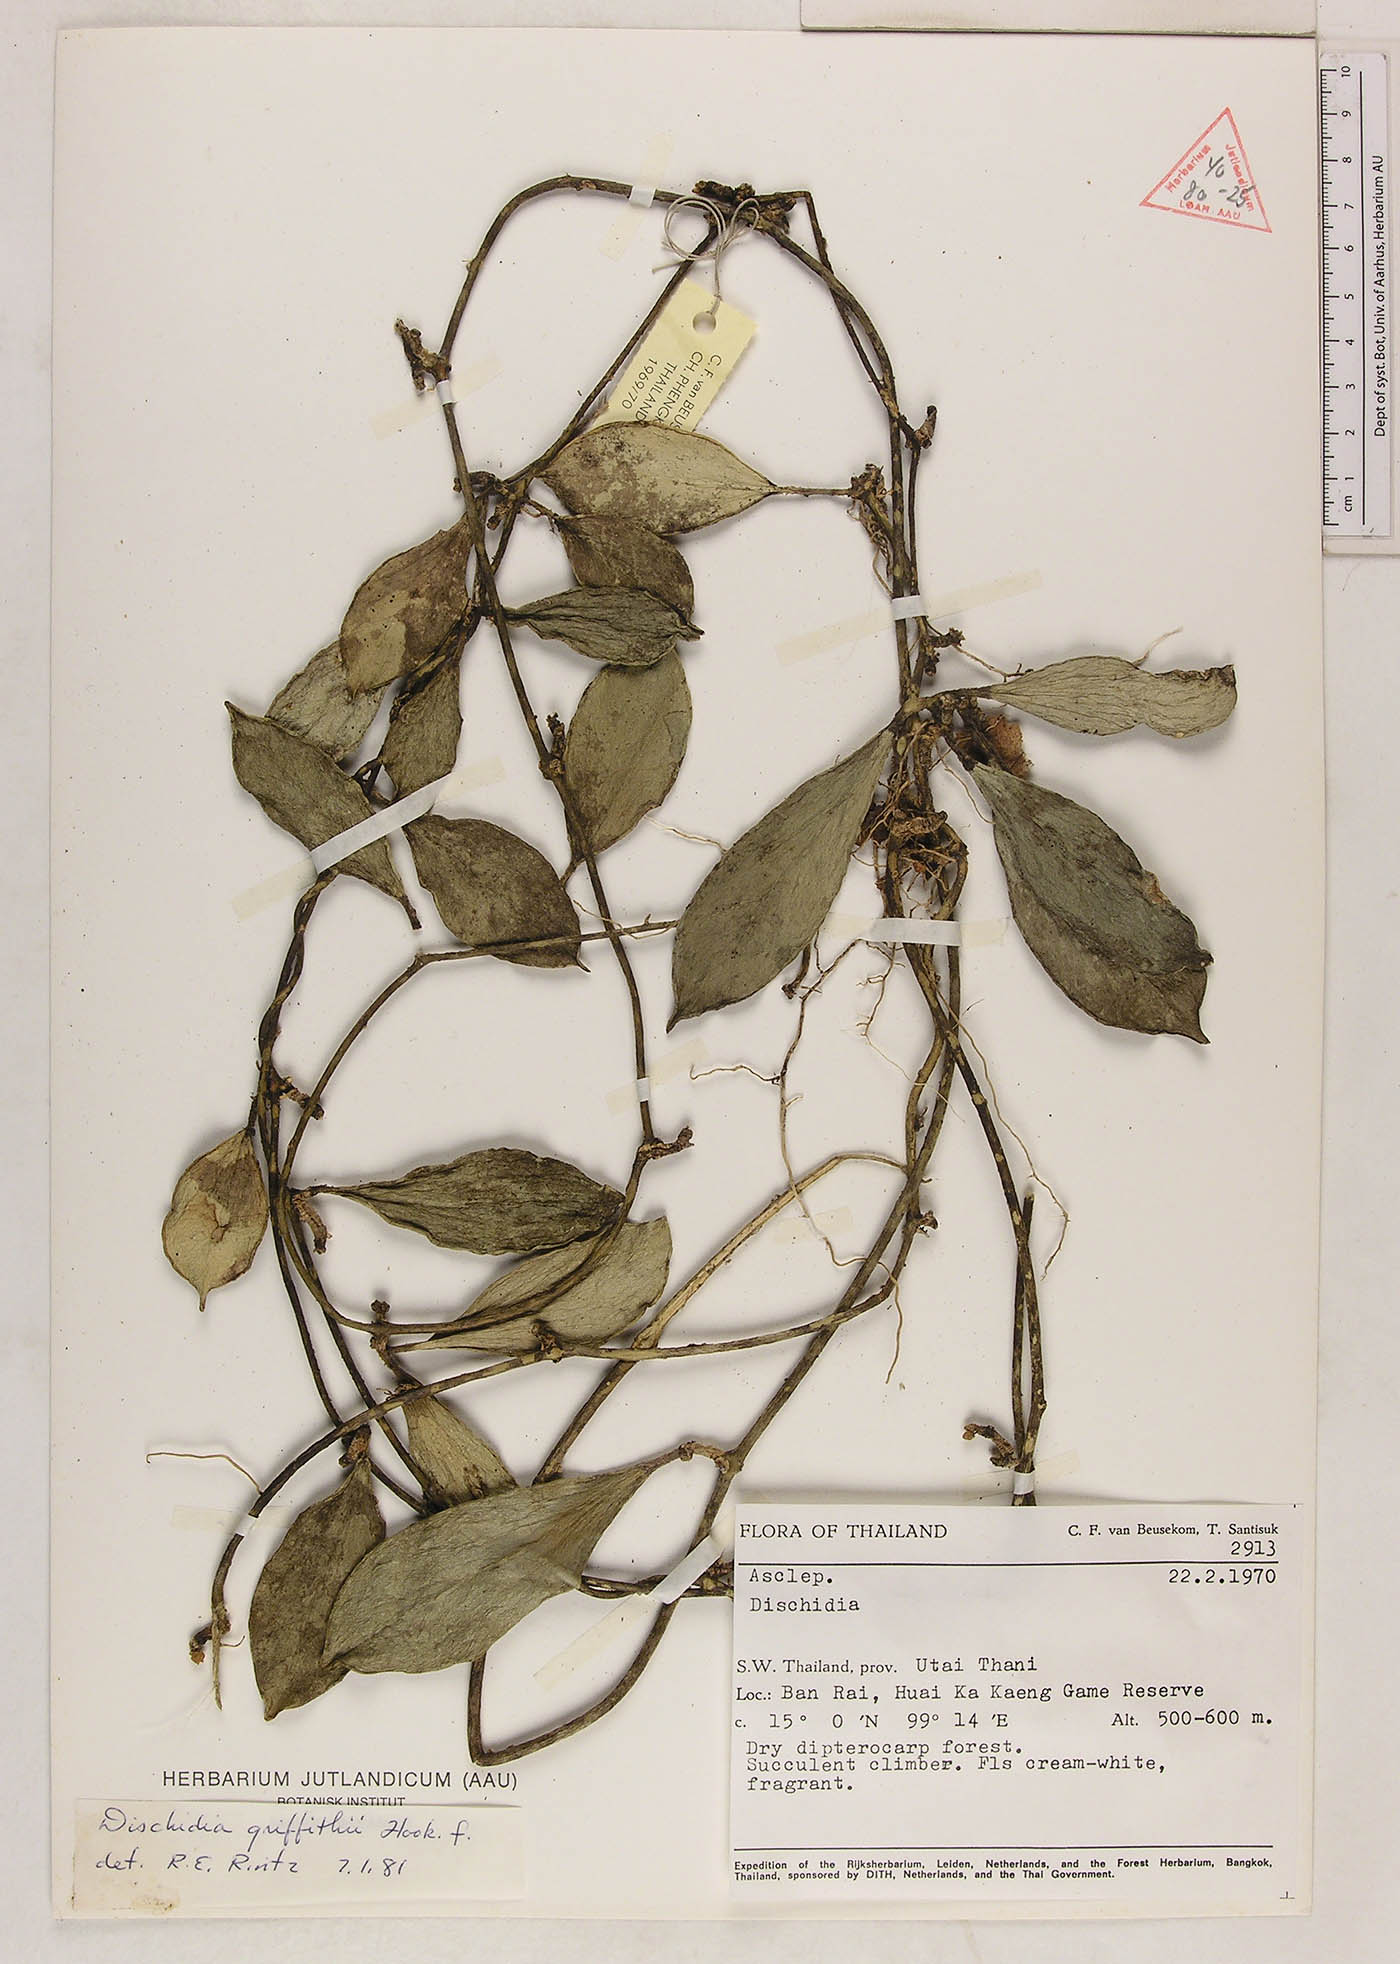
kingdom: Plantae
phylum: Tracheophyta
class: Magnoliopsida
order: Gentianales
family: Apocynaceae
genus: Dischidia
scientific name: Dischidia griffithii
